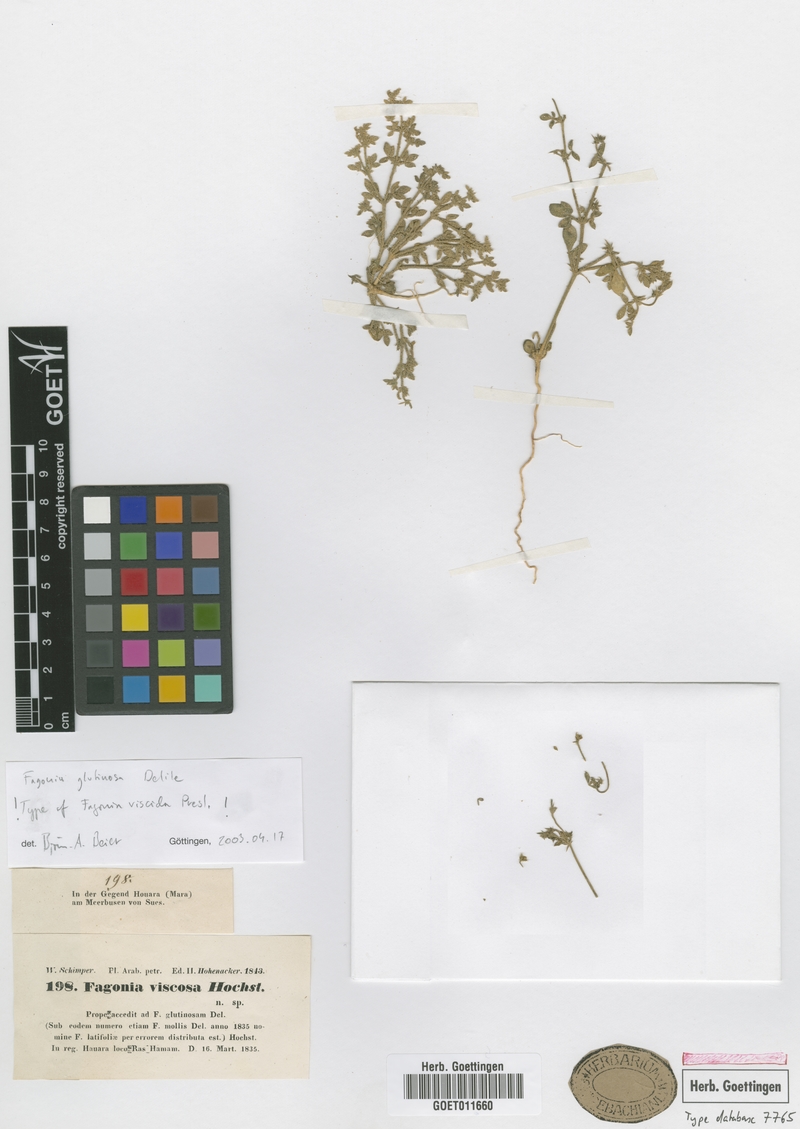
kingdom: Plantae
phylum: Tracheophyta
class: Magnoliopsida
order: Zygophyllales
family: Zygophyllaceae
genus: Fagonia
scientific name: Fagonia glutinosa
